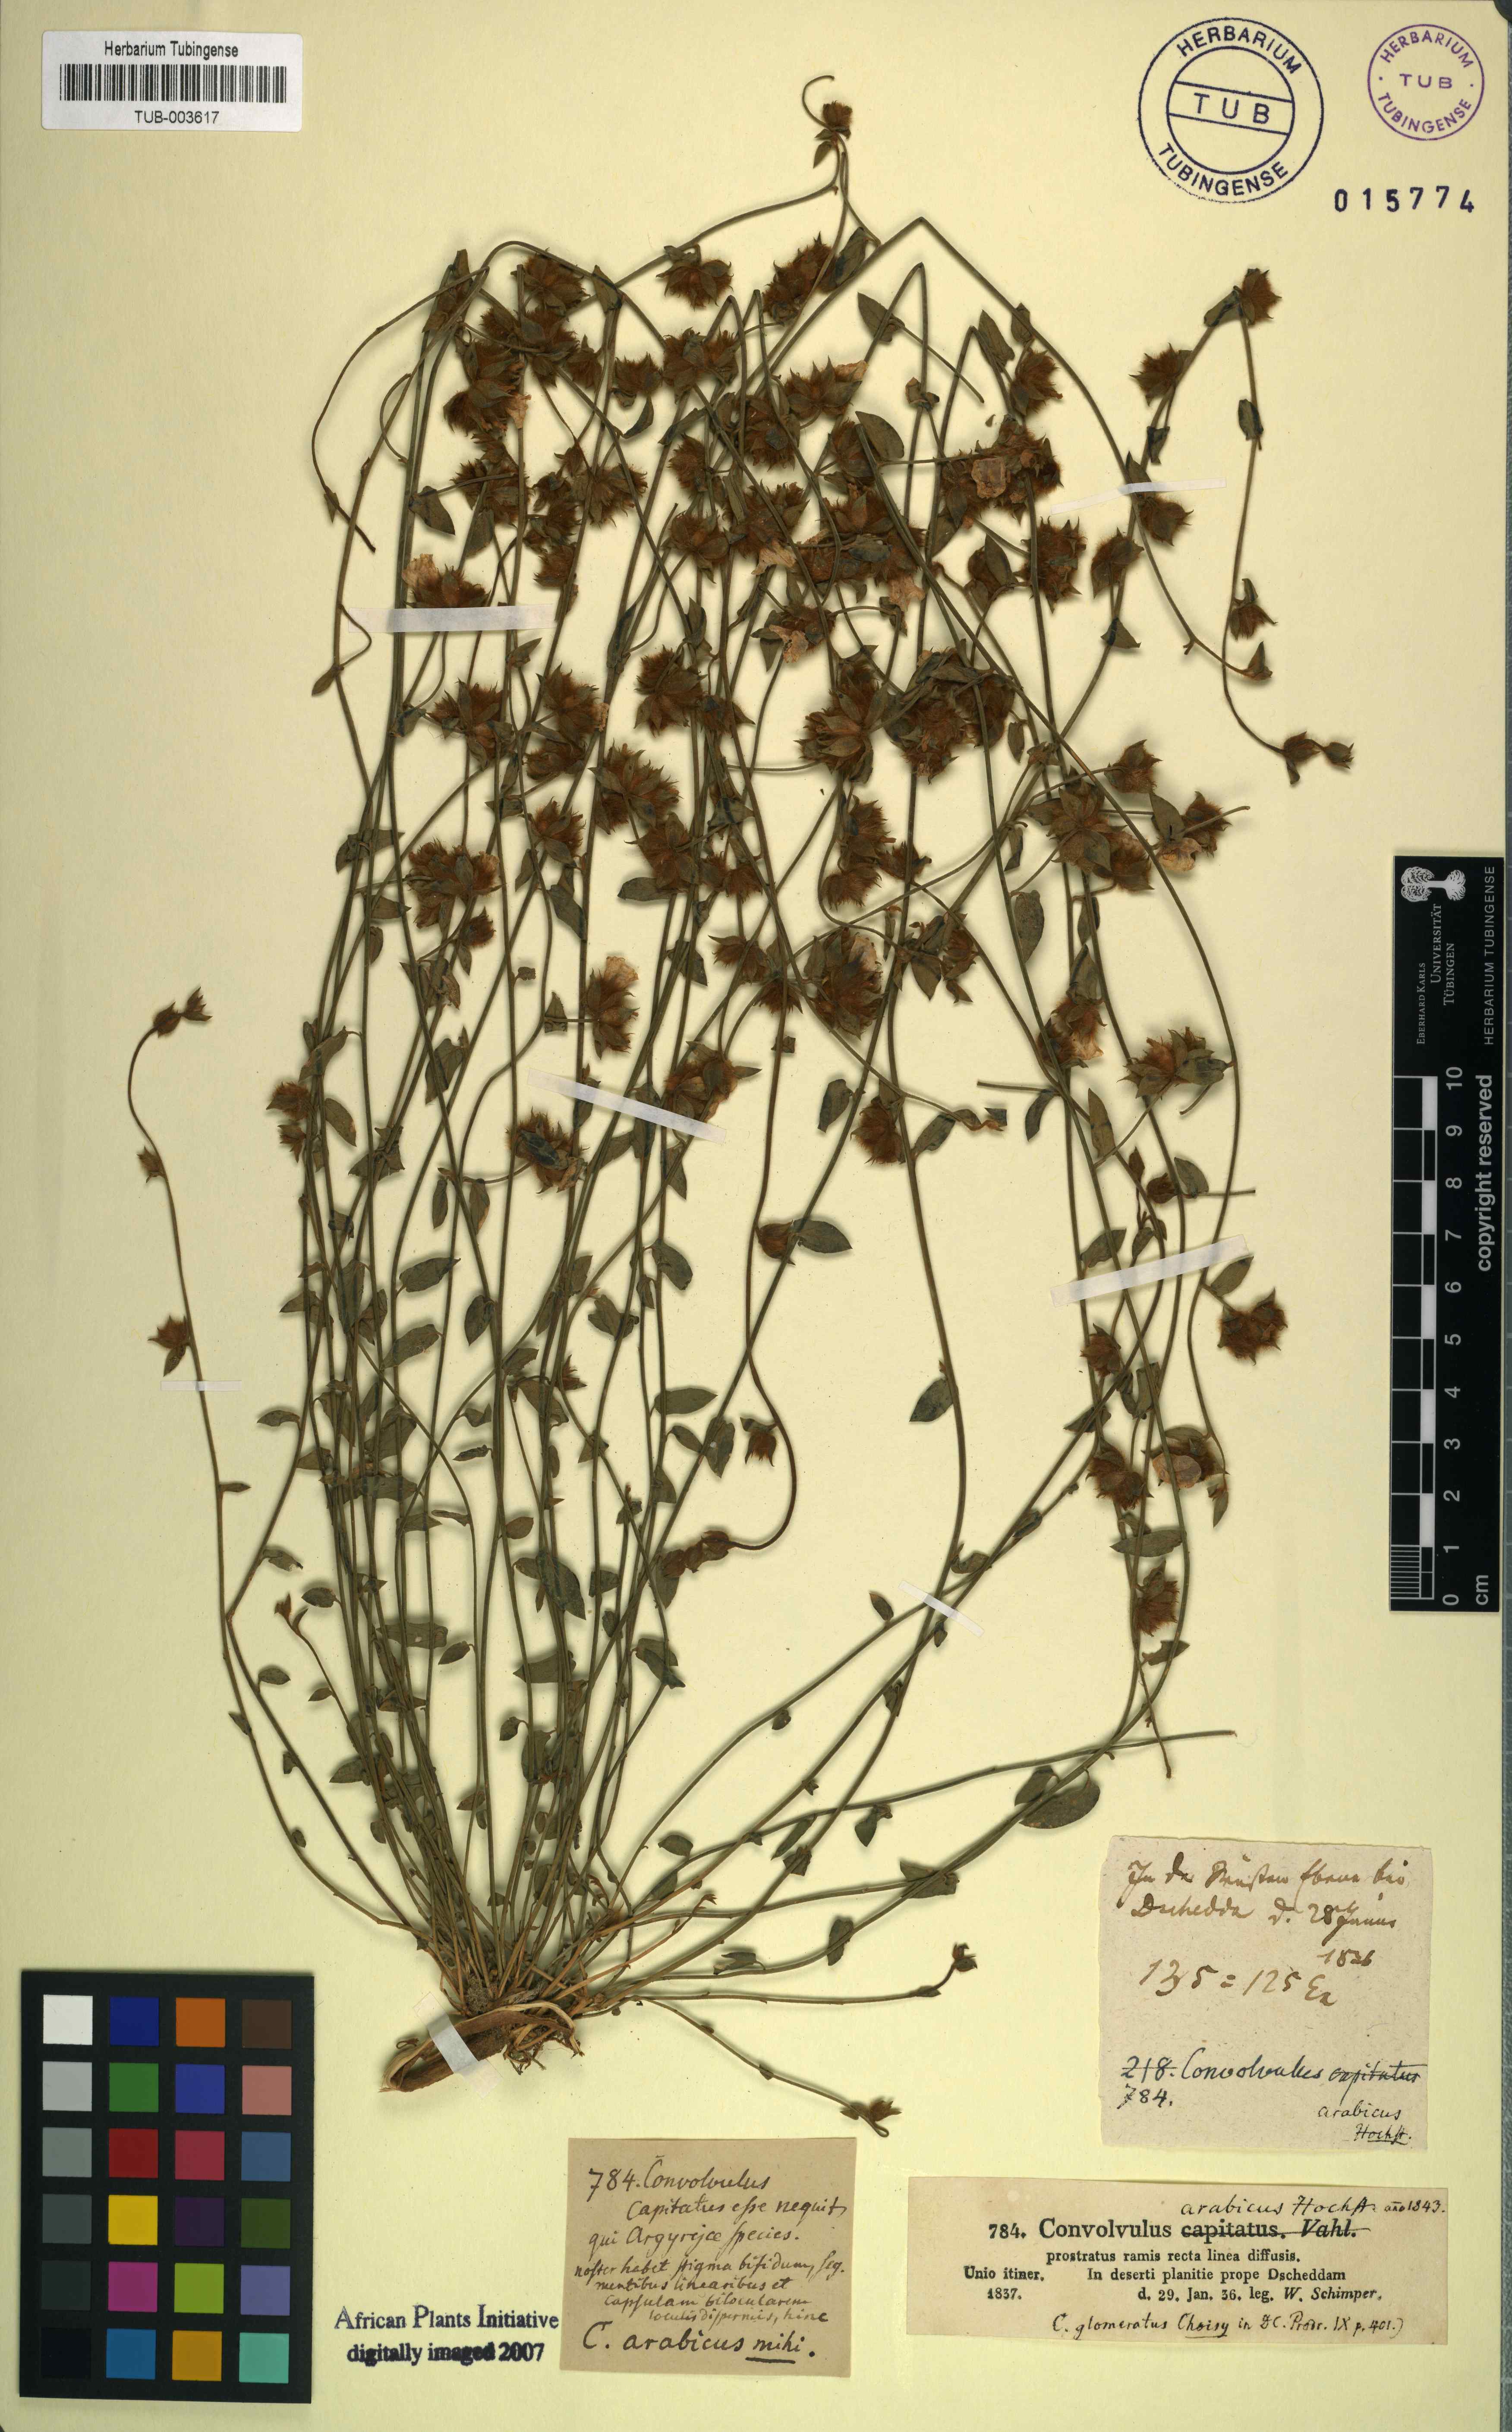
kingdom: Plantae
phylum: Tracheophyta
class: Magnoliopsida
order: Solanales
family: Convolvulaceae
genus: Convolvulus
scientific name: Convolvulus glomeratus
